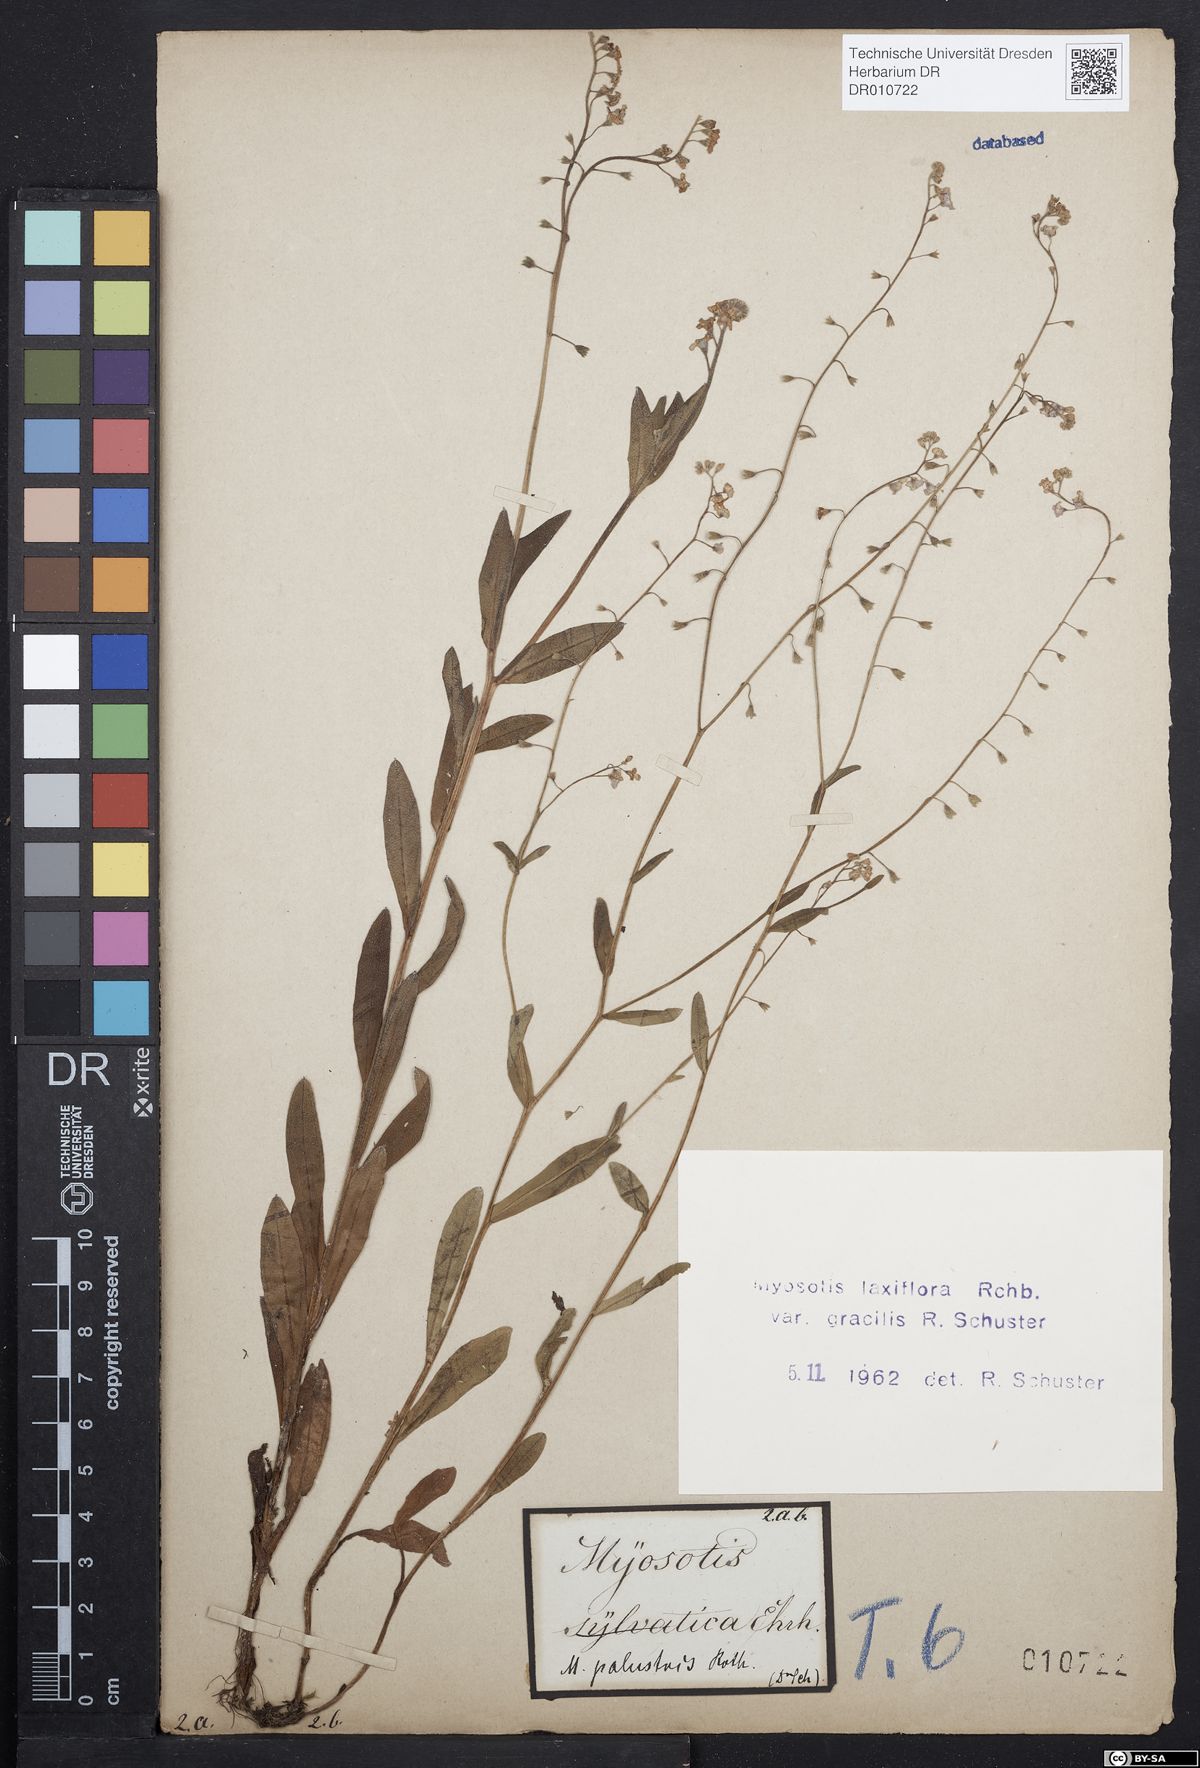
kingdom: Plantae
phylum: Tracheophyta
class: Magnoliopsida
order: Boraginales
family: Boraginaceae
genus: Myosotis
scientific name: Myosotis scorpioides
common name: Water forget-me-not
